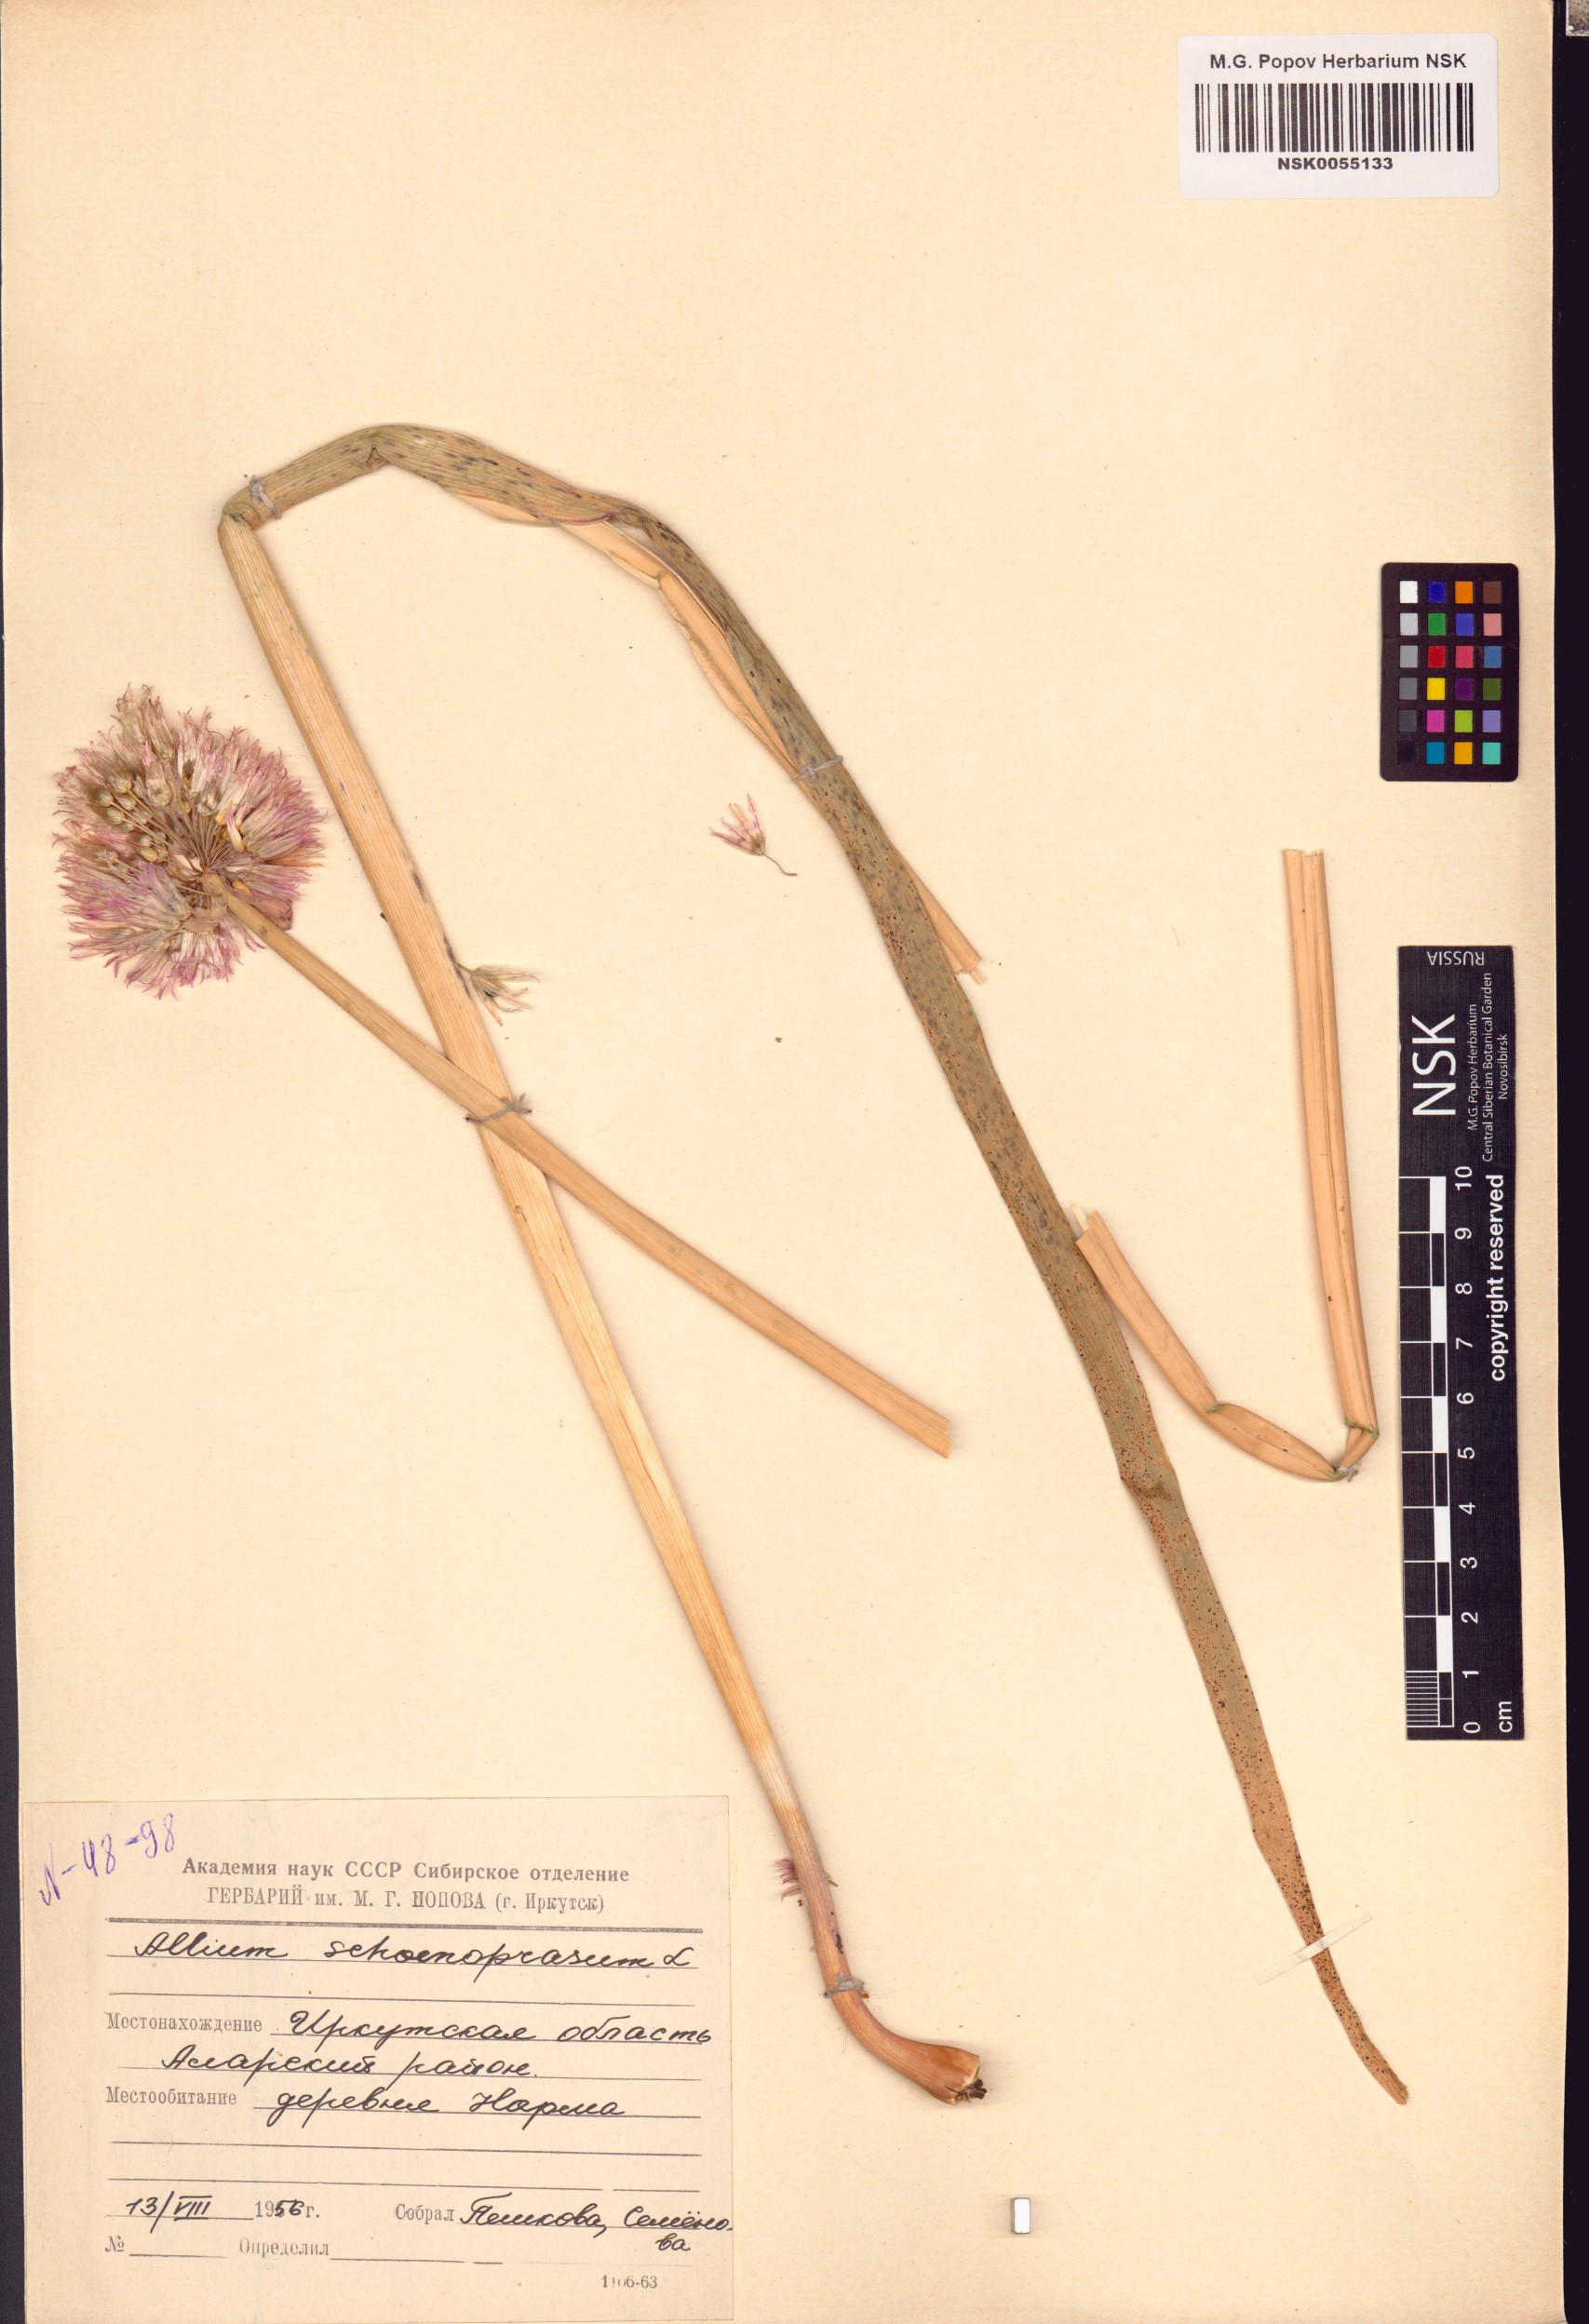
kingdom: Plantae
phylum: Tracheophyta
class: Liliopsida
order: Asparagales
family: Amaryllidaceae
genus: Allium
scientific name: Allium schoenoprasum
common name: Chives
